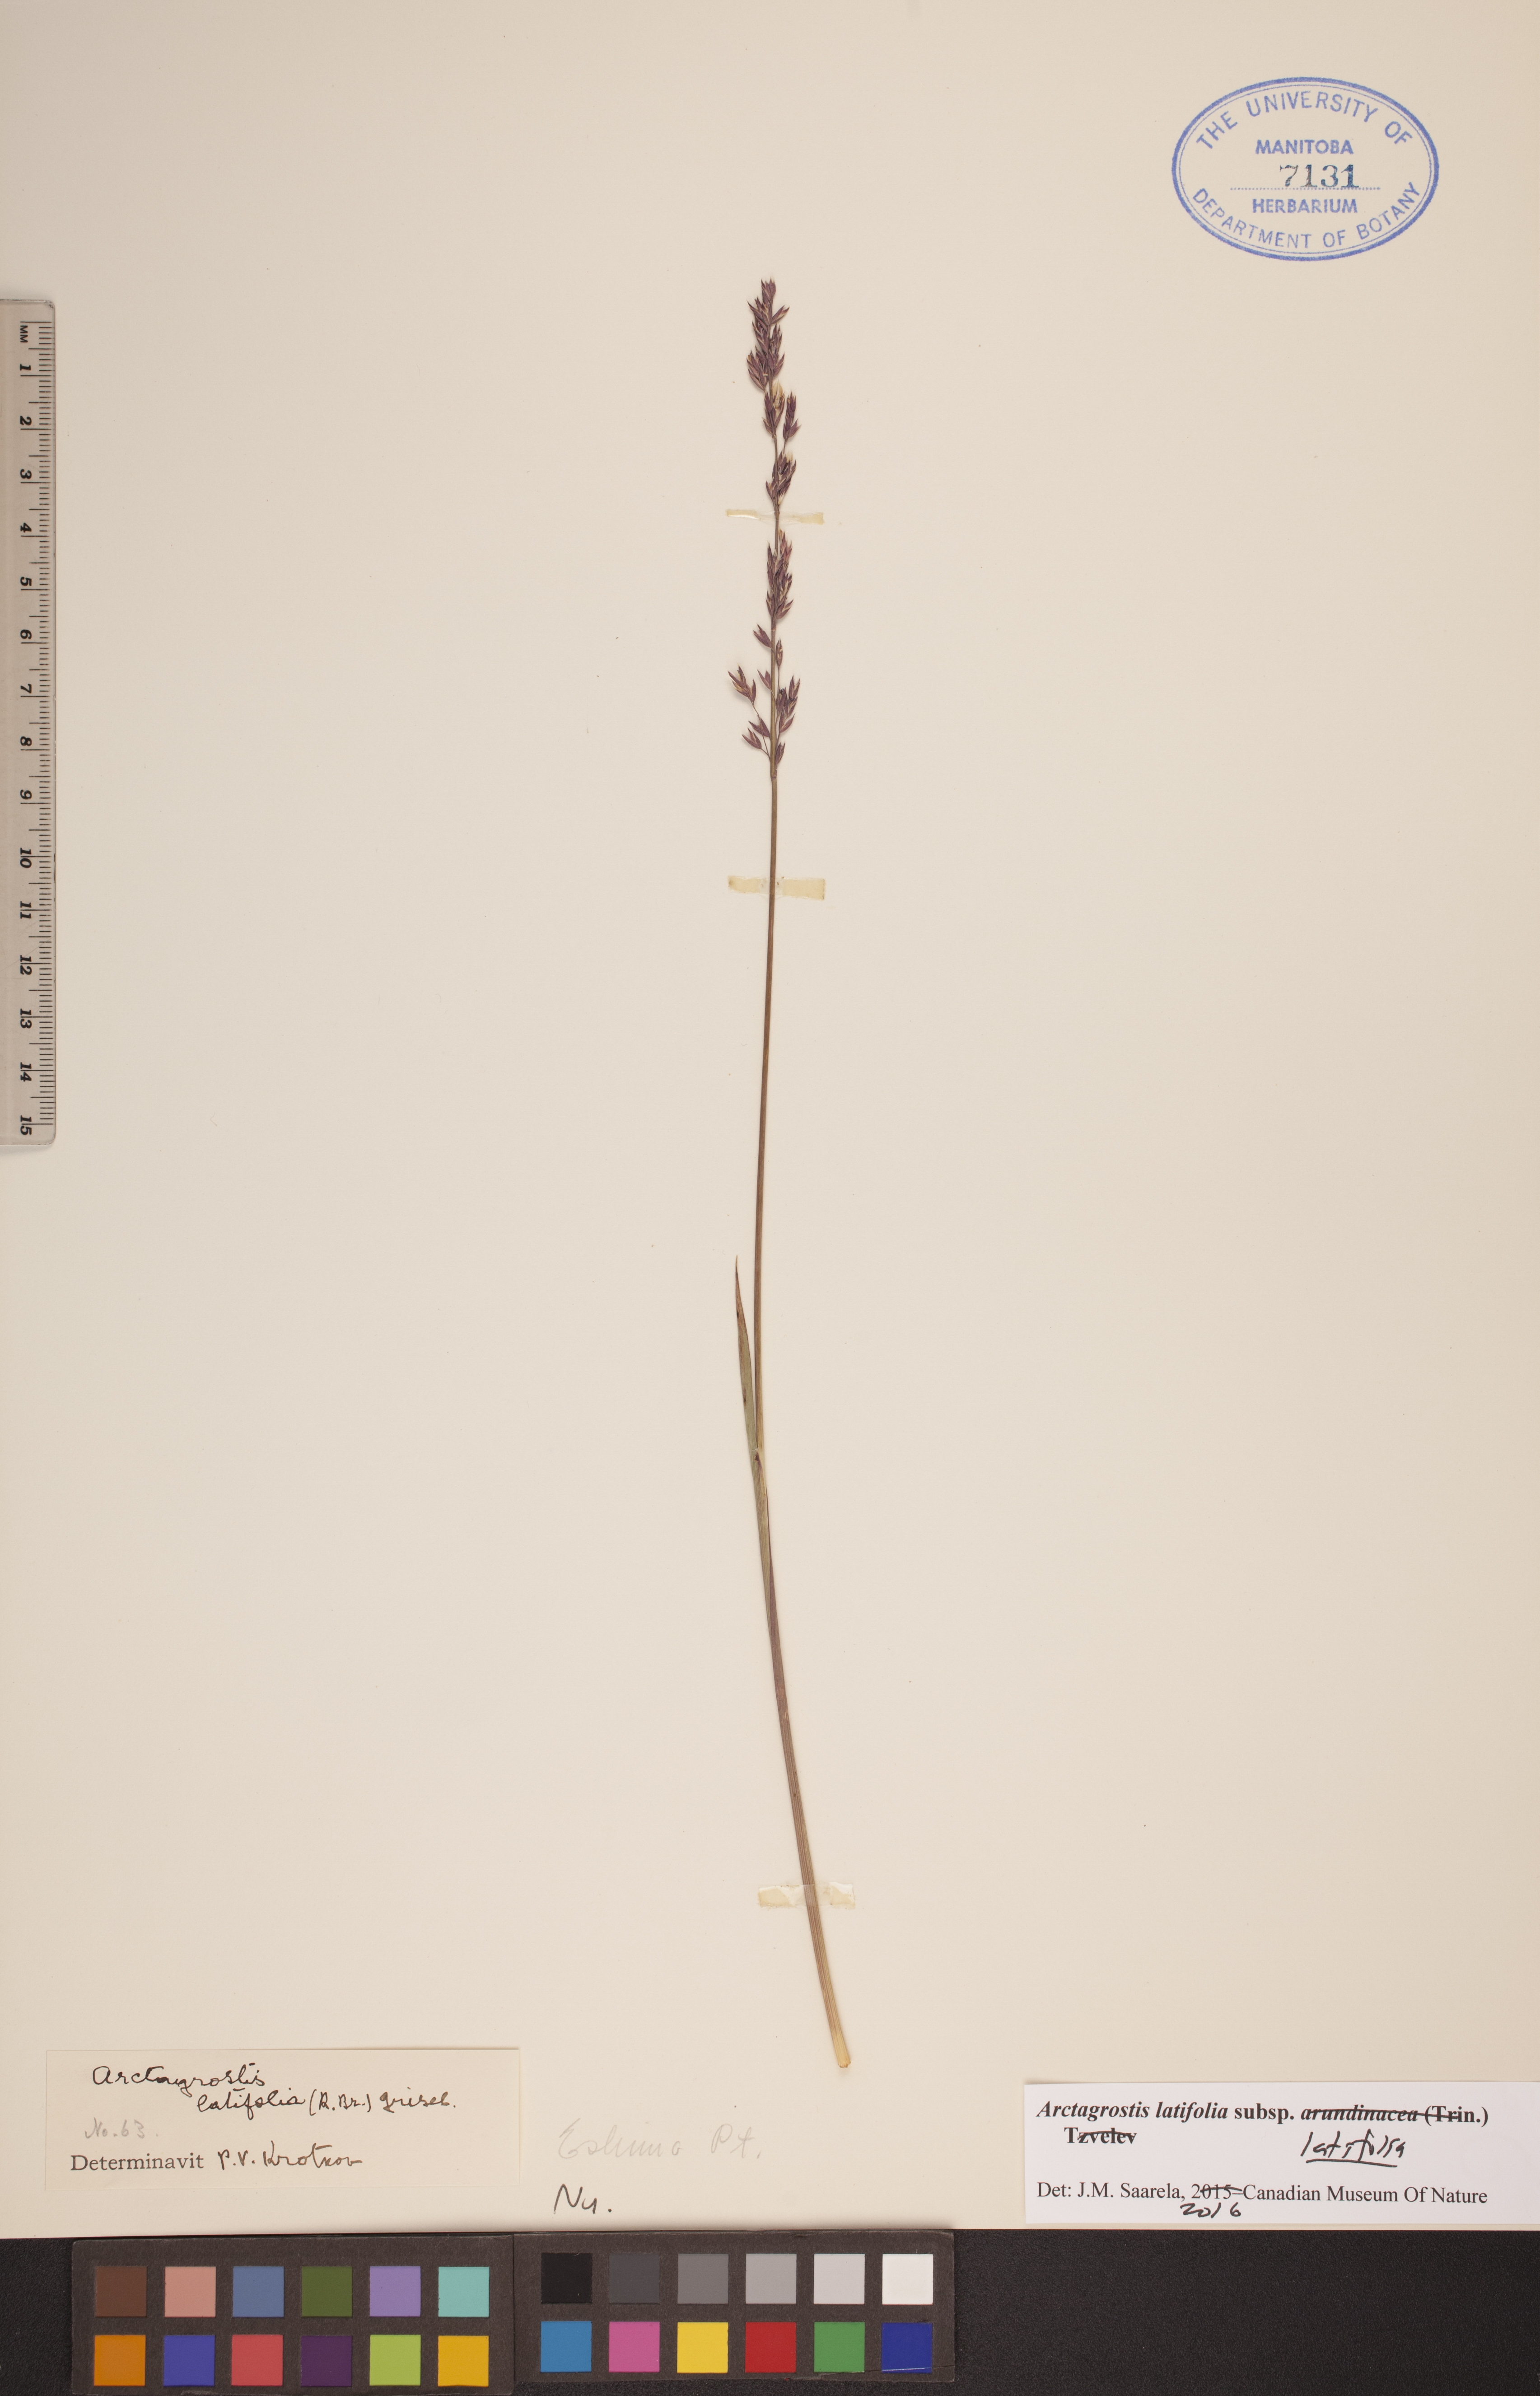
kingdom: Plantae
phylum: Tracheophyta
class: Liliopsida
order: Poales
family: Poaceae
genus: Arctagrostis
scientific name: Arctagrostis latifolia
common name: Arctic grass
